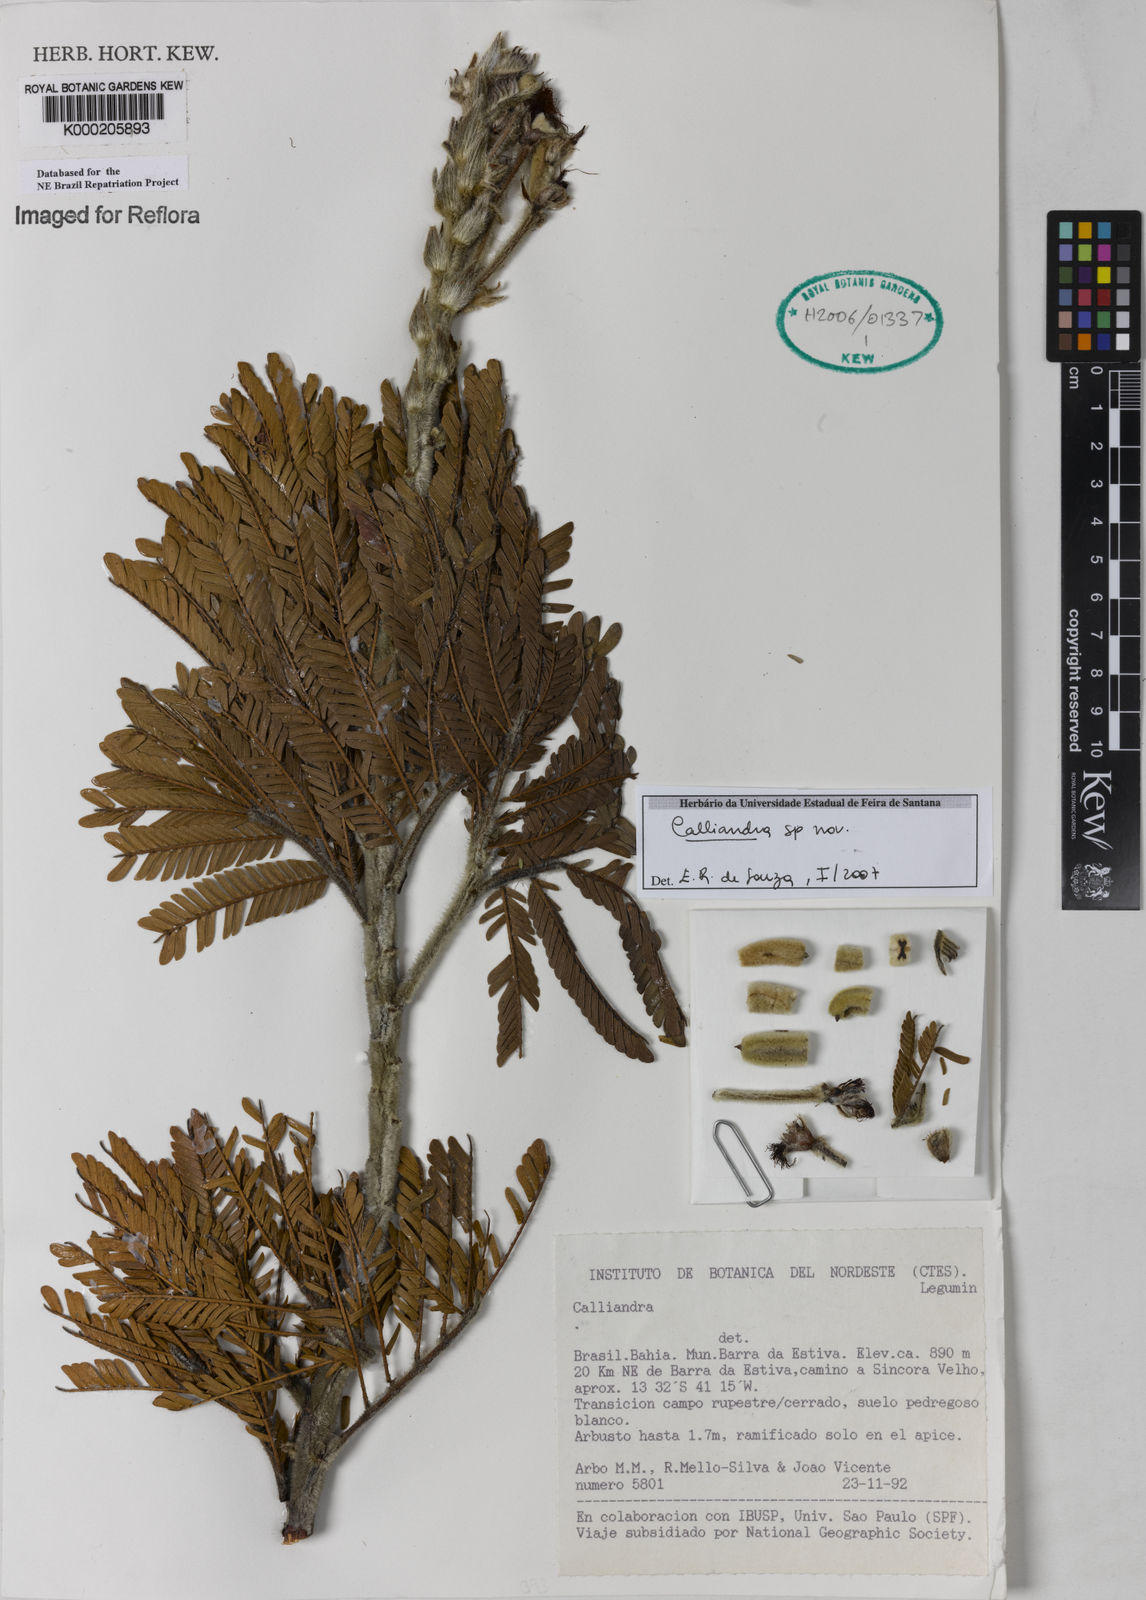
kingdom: Plantae
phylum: Tracheophyta
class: Magnoliopsida
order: Fabales
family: Fabaceae
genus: Calliandra
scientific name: Calliandra lewisii
